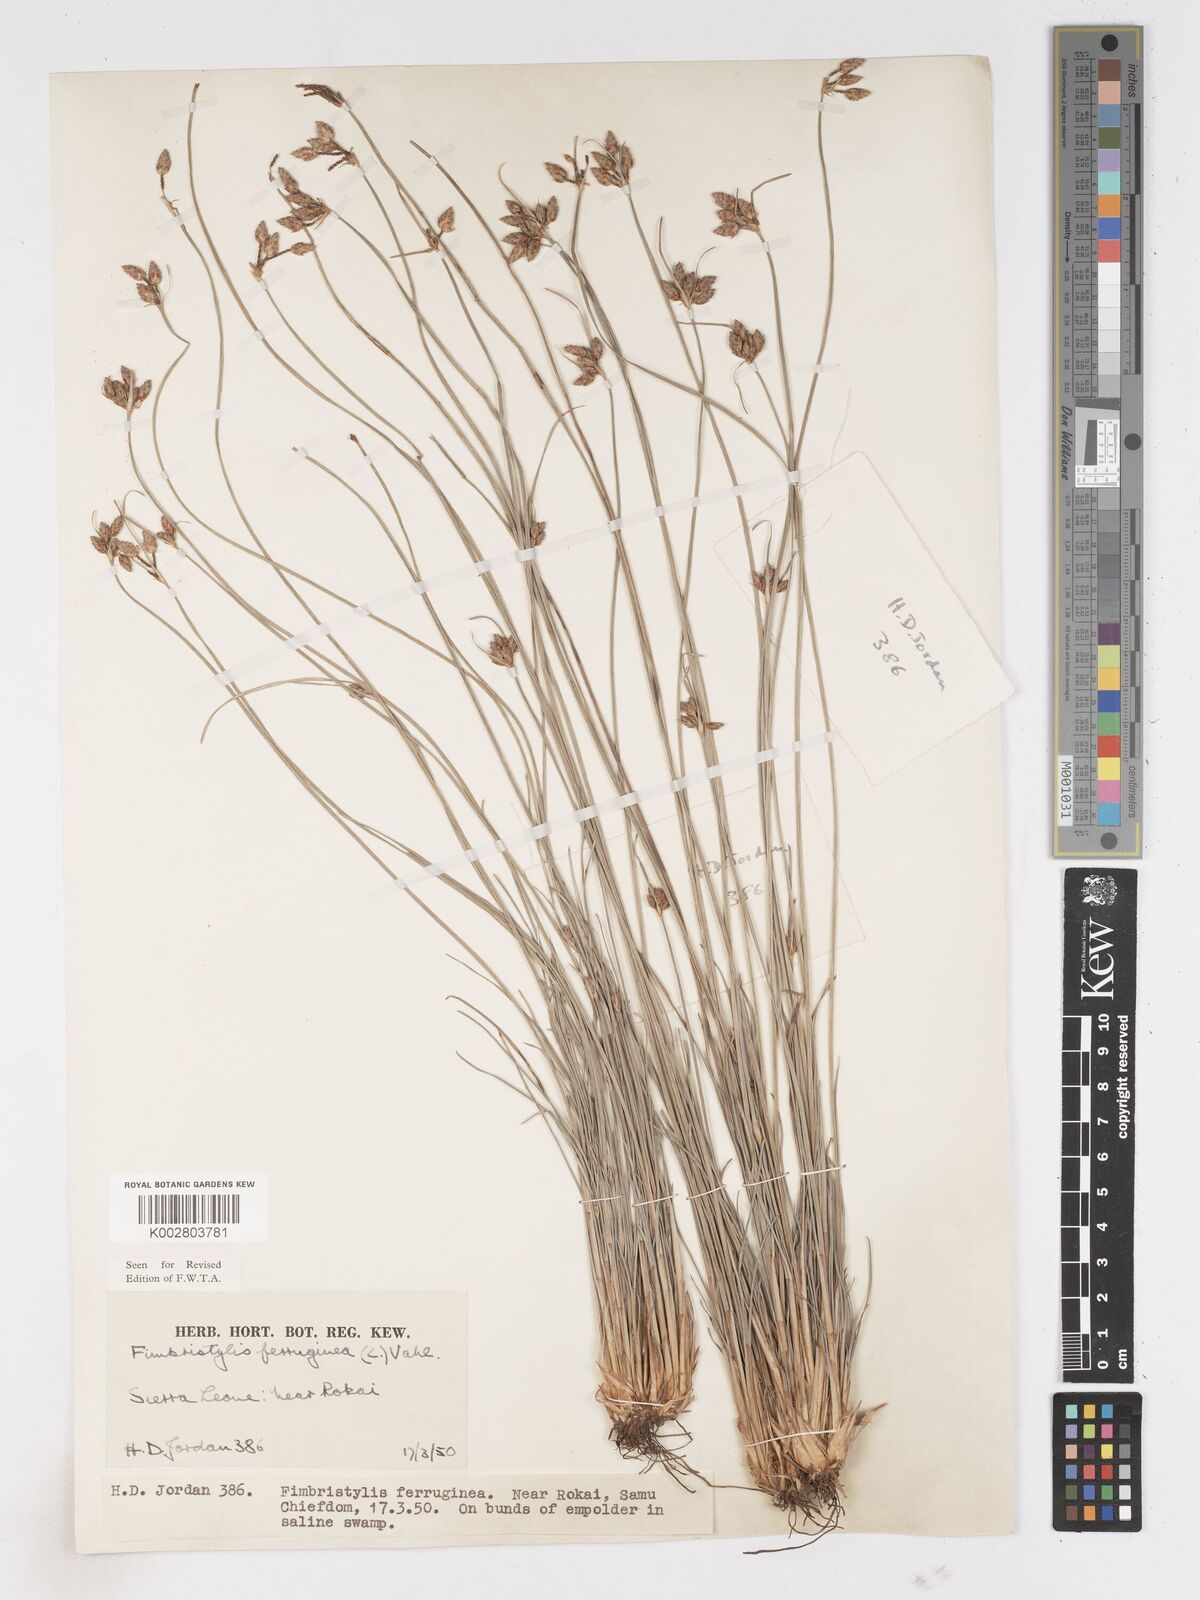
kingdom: Plantae
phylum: Tracheophyta
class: Liliopsida
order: Poales
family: Cyperaceae
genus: Fimbristylis
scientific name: Fimbristylis ferruginea
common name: West indian fimbry
